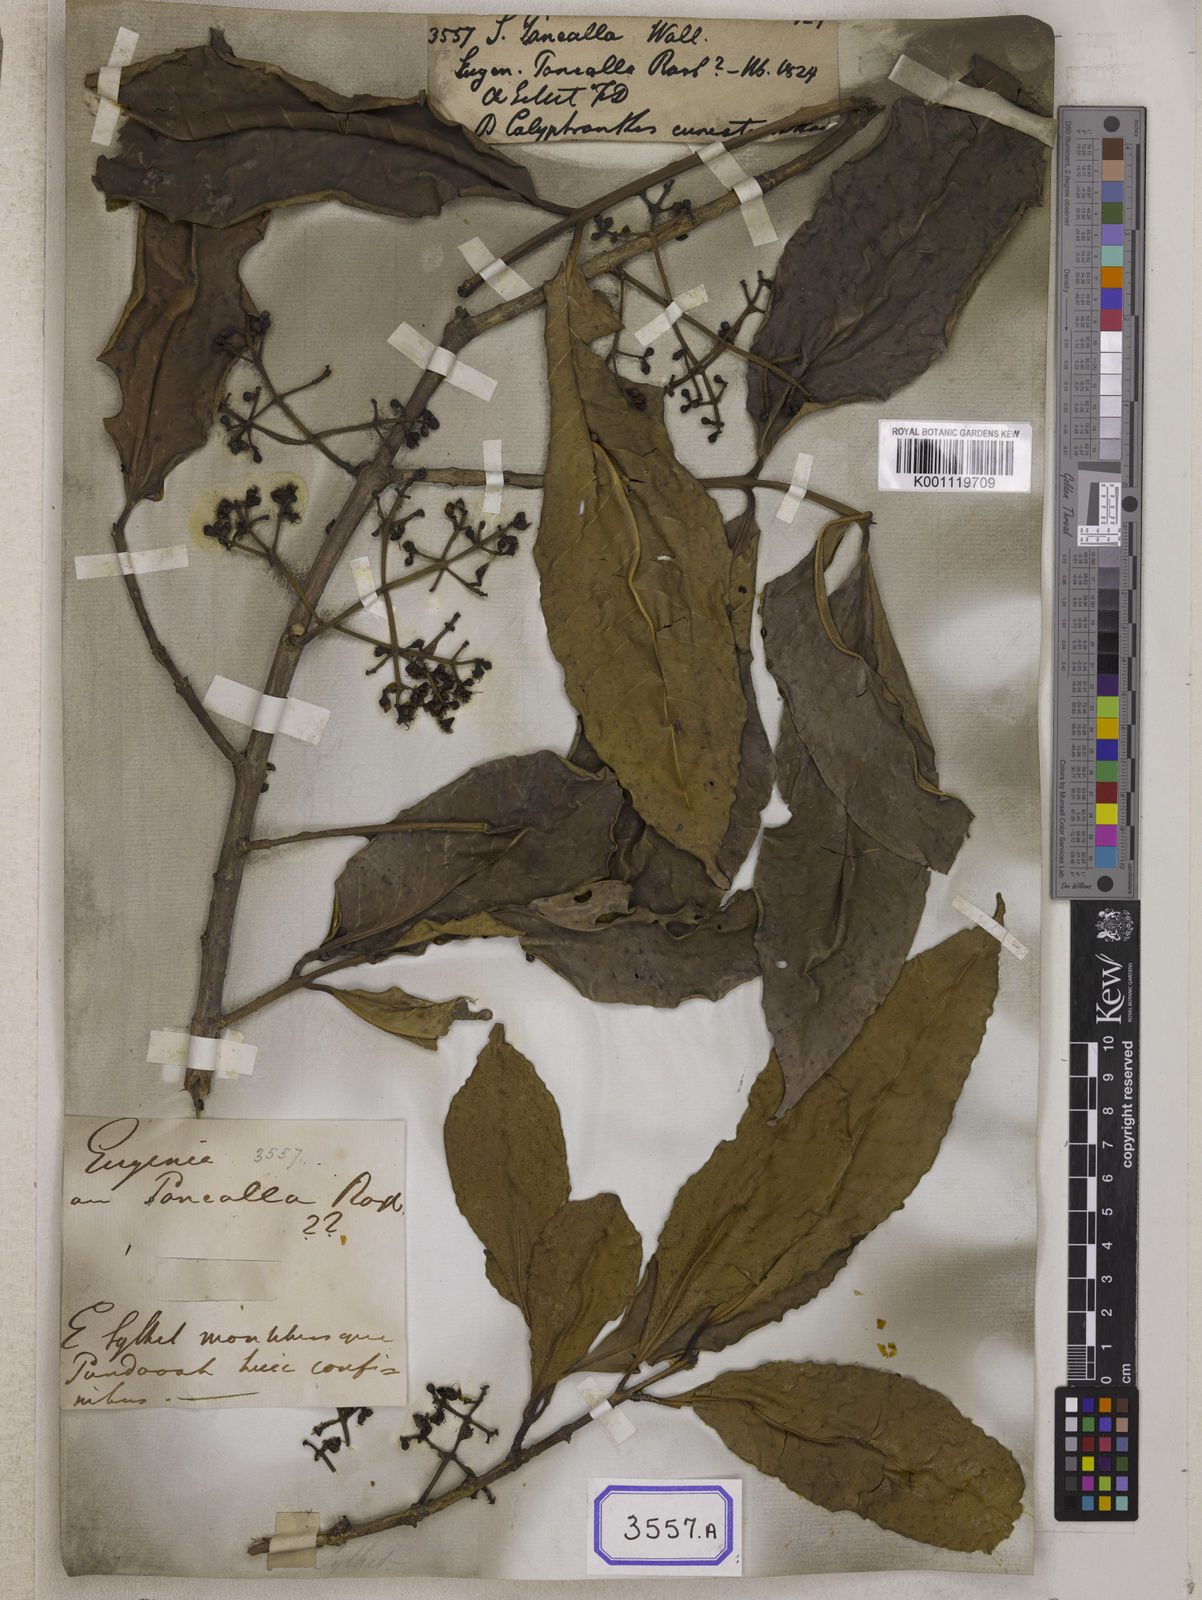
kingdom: Plantae
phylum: Tracheophyta
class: Magnoliopsida
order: Myrtales
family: Myrtaceae
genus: Syzygium
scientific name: Syzygium
